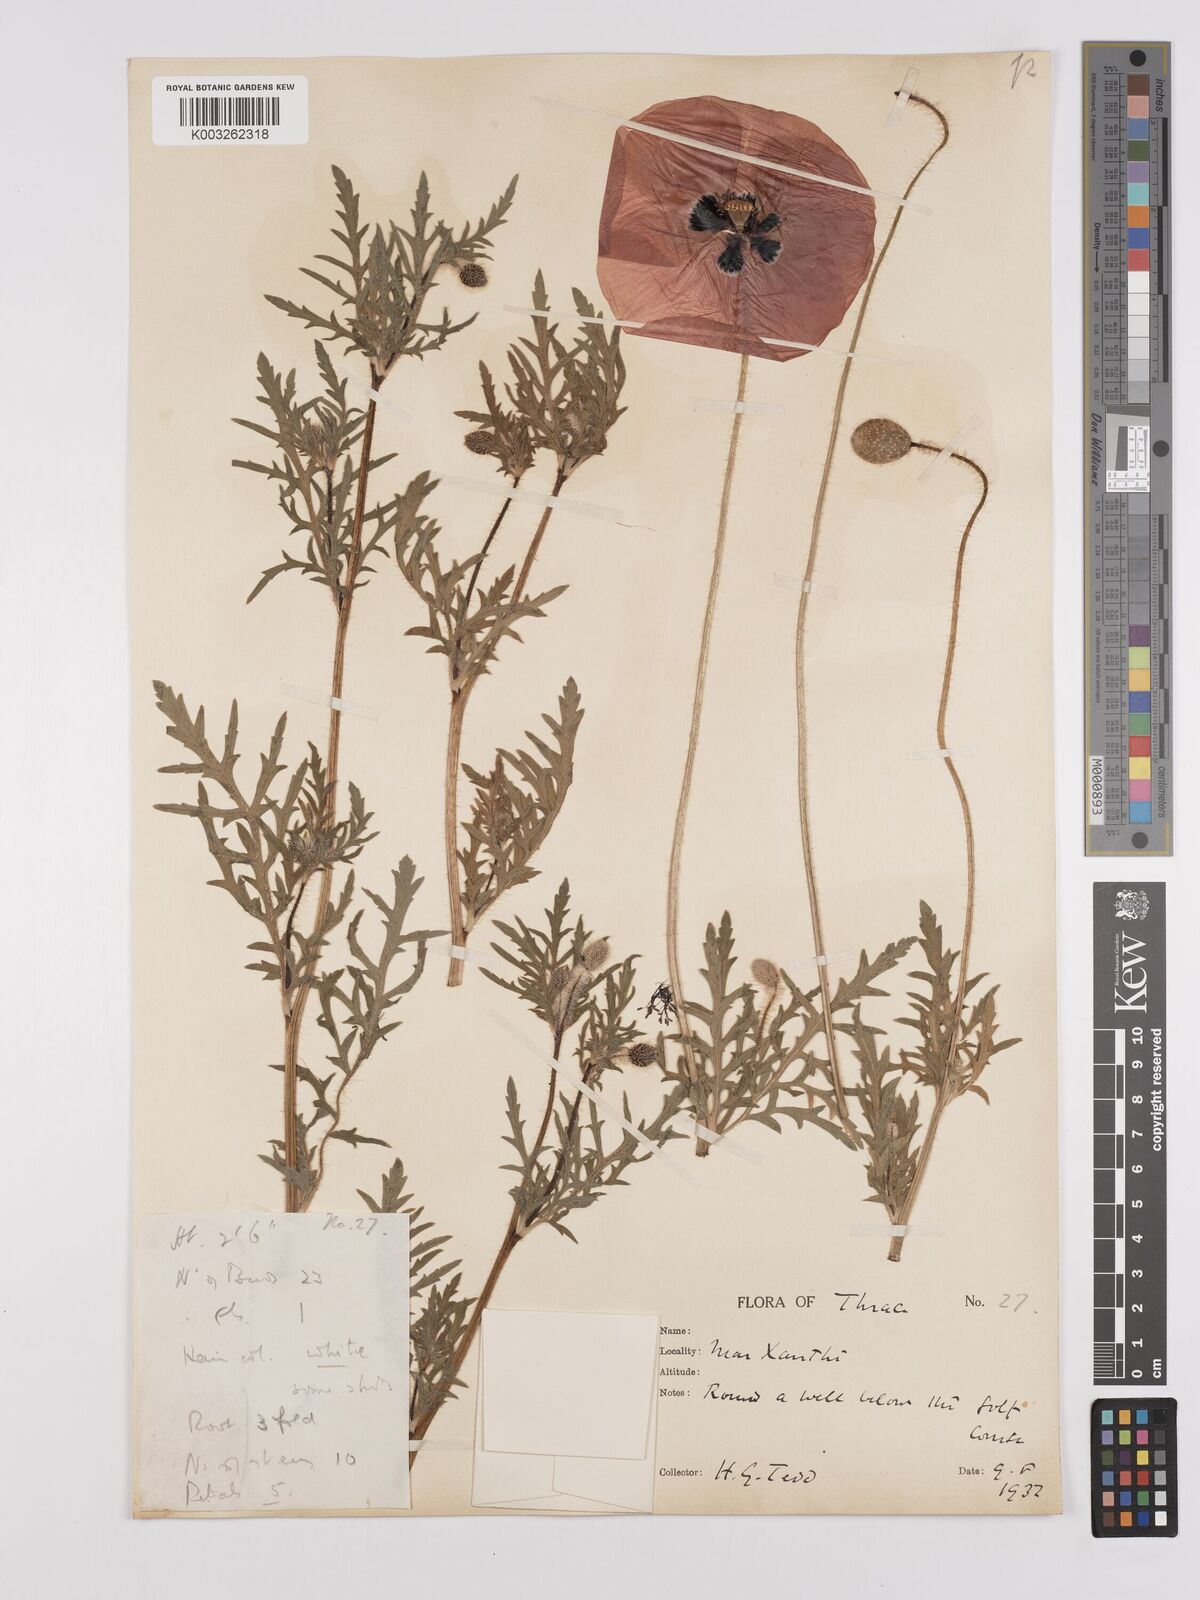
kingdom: Plantae
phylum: Tracheophyta
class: Magnoliopsida
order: Ranunculales
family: Papaveraceae
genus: Papaver
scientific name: Papaver rhoeas
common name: Corn poppy
